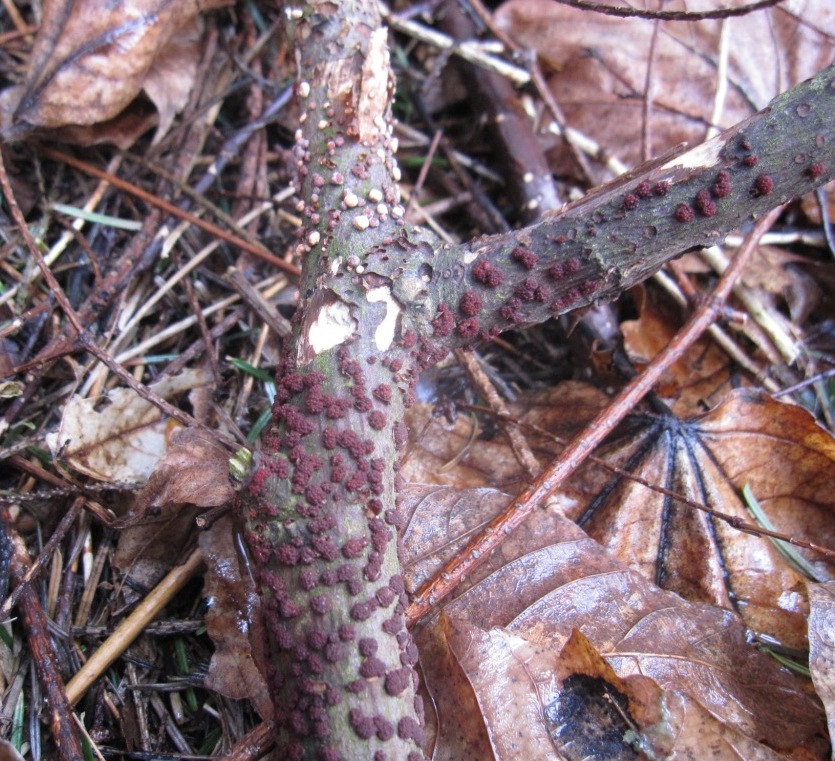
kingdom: Fungi
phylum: Ascomycota
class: Sordariomycetes
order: Hypocreales
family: Nectriaceae
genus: Nectria
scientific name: Nectria cinnabarina
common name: almindelig cinnobersvamp
